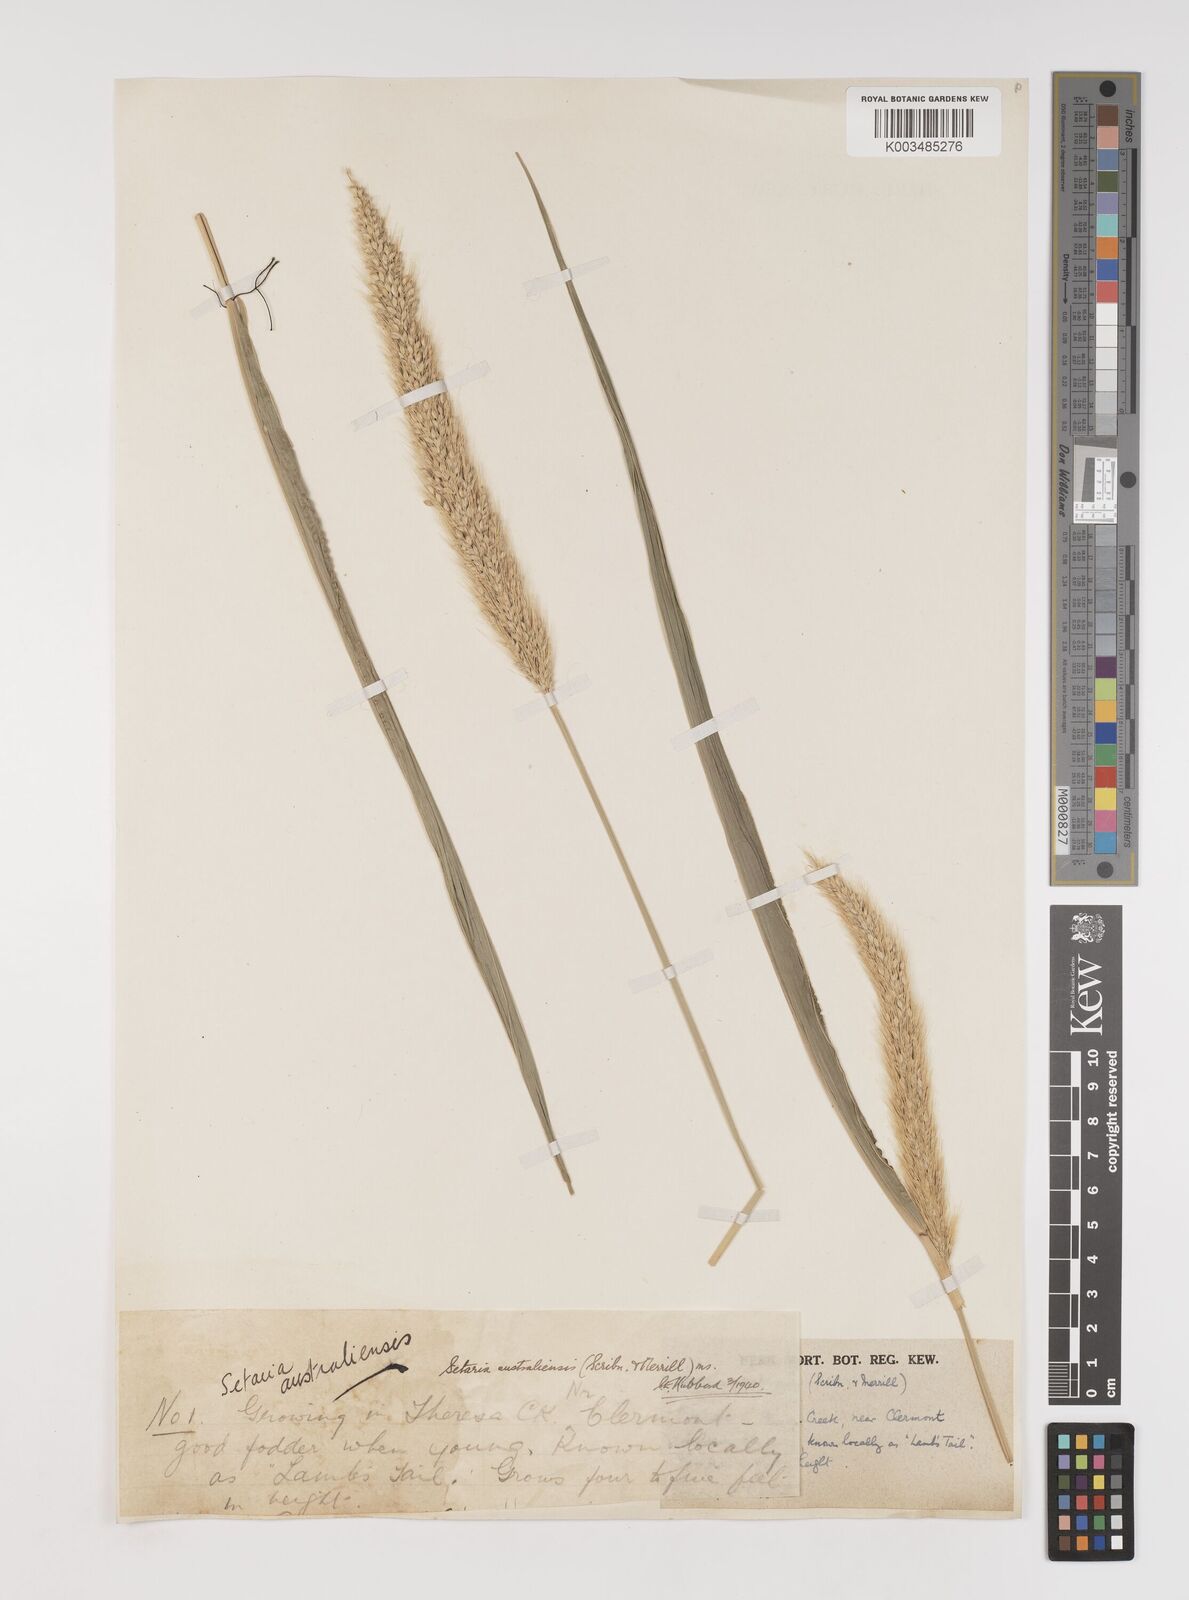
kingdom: Plantae
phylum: Tracheophyta
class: Liliopsida
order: Poales
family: Poaceae
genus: Setaria
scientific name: Setaria australiensis
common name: Scrub pigeon grass
